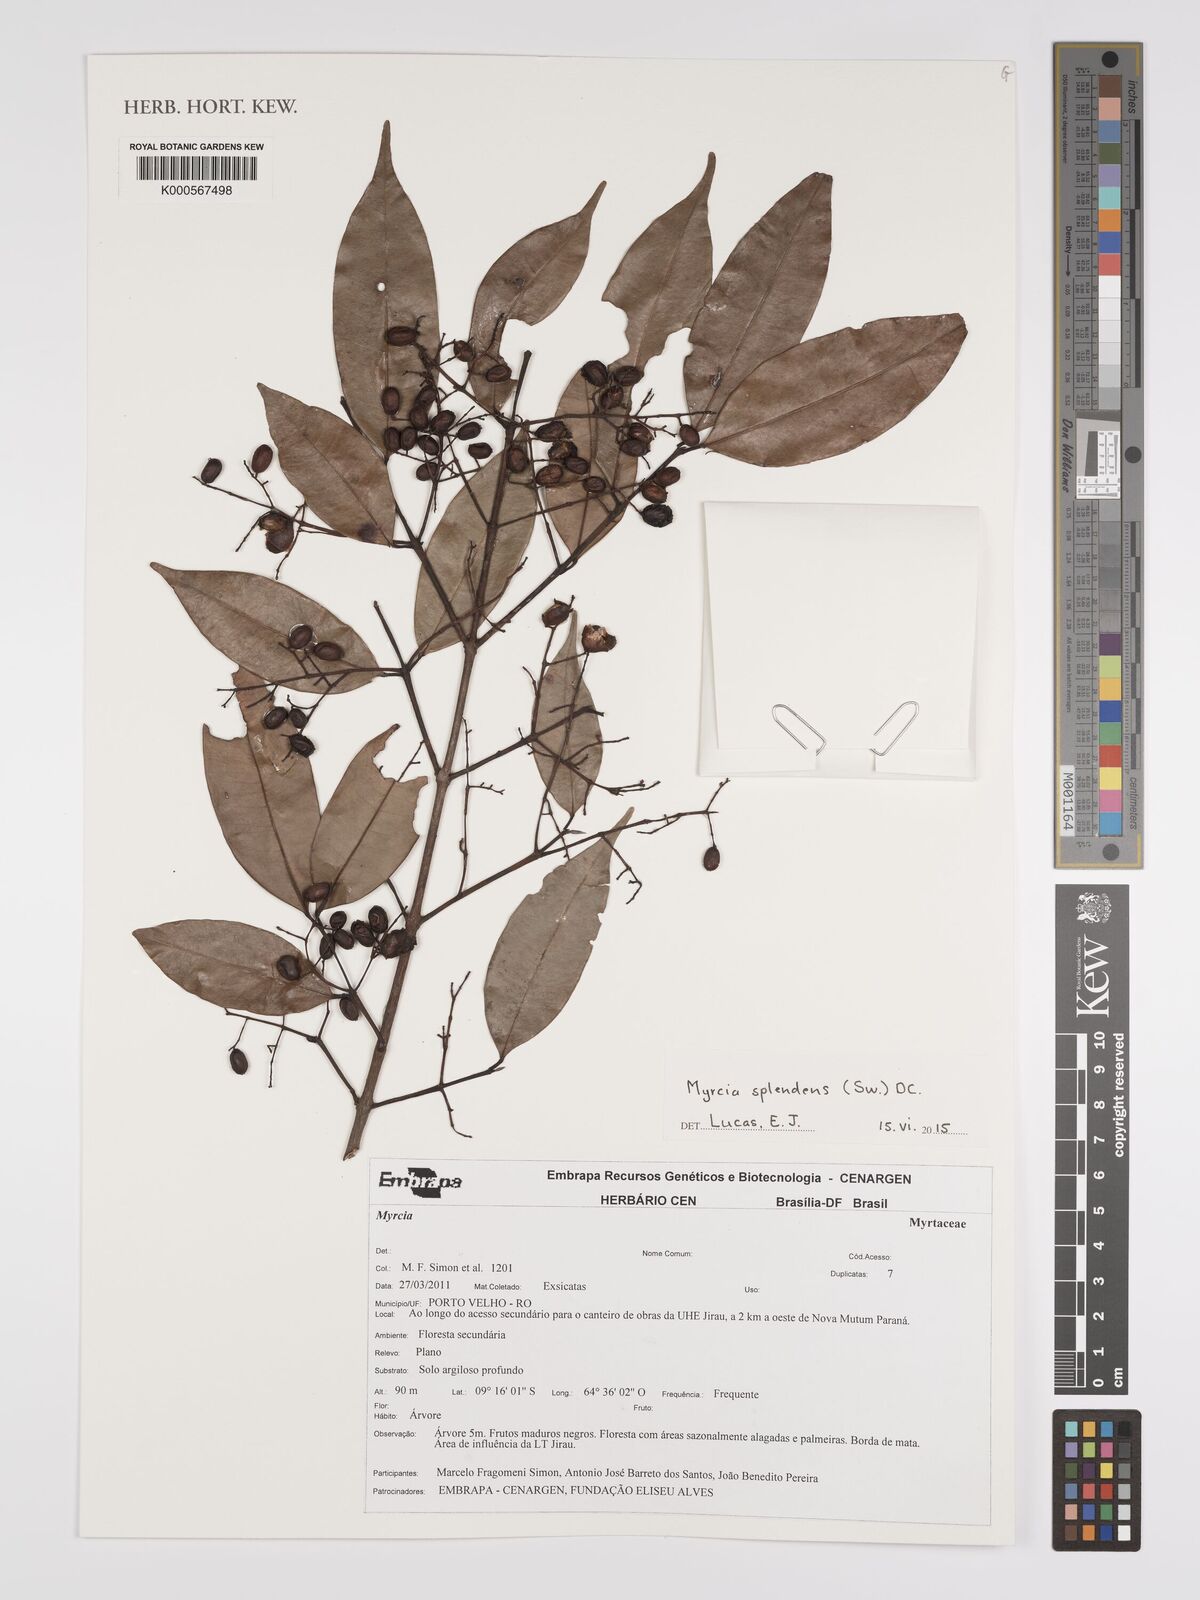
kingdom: Plantae
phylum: Tracheophyta
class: Magnoliopsida
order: Myrtales
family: Myrtaceae
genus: Myrcia
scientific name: Myrcia splendens
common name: Surinam cherry
